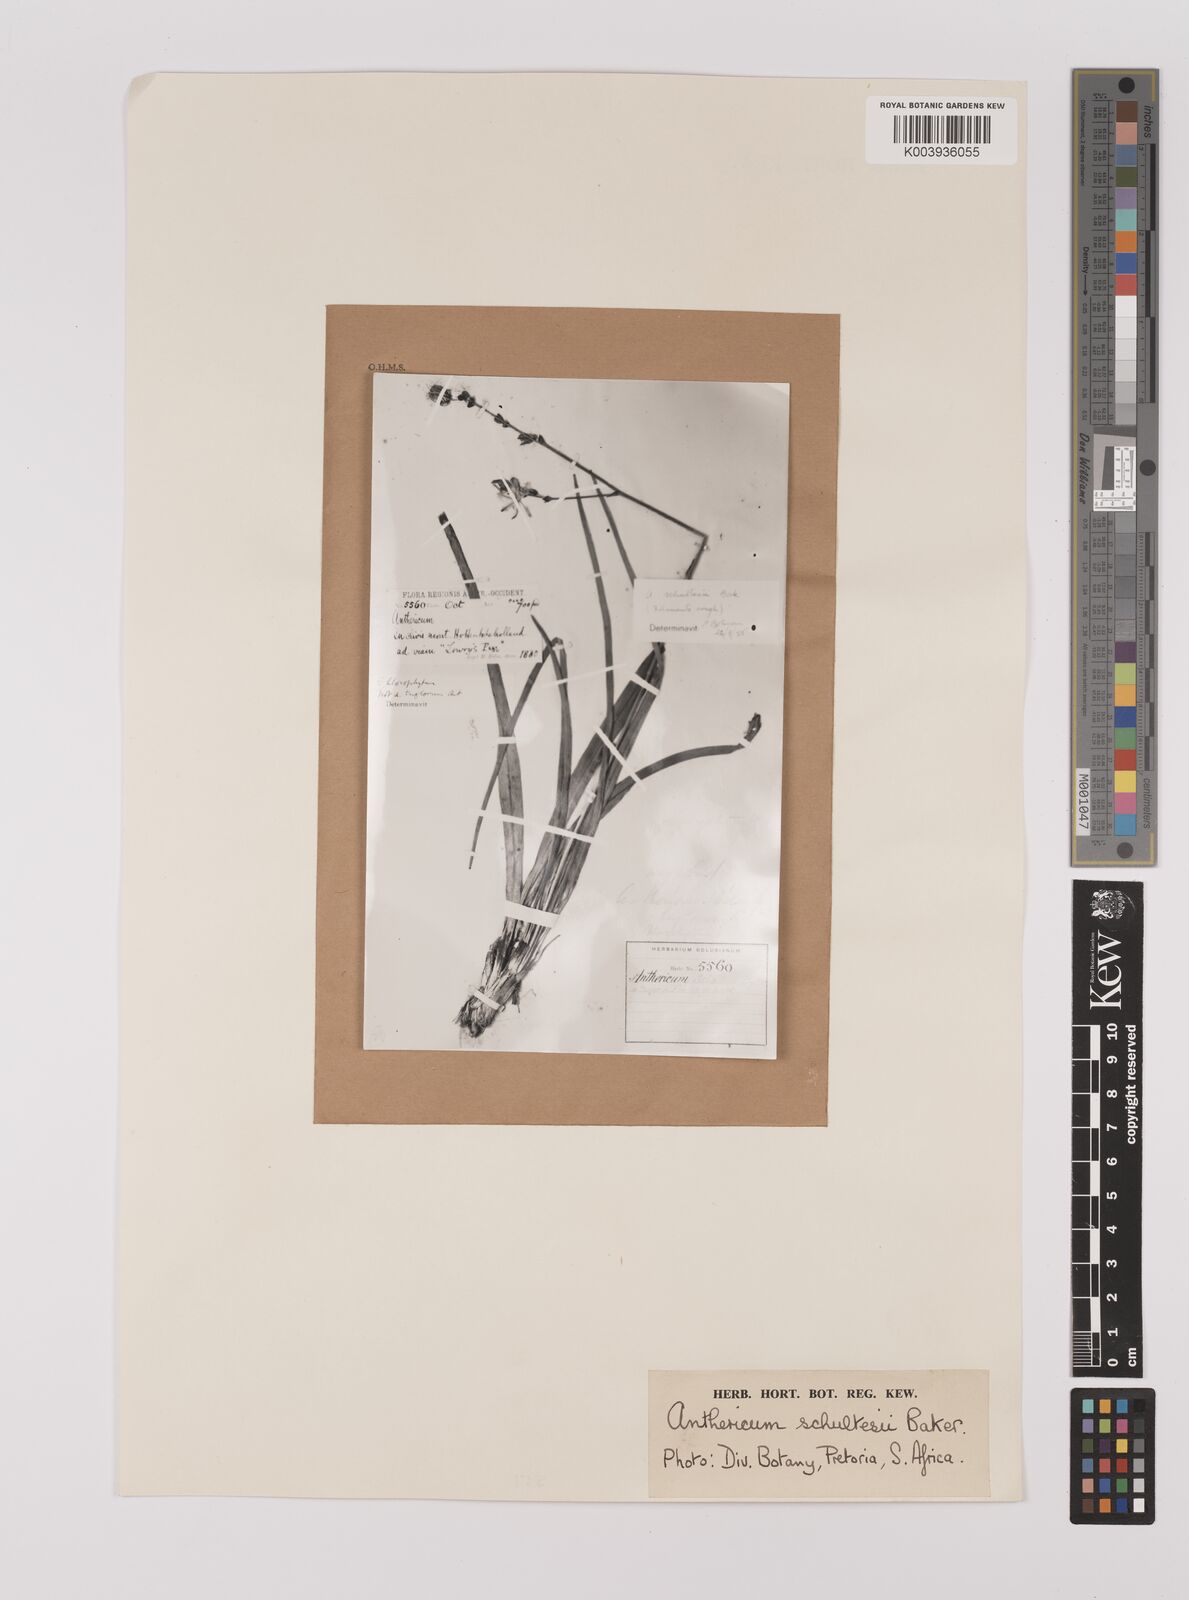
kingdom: Plantae
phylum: Tracheophyta
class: Liliopsida
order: Asparagales
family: Asparagaceae
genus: Chlorophytum
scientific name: Chlorophytum rigidum
